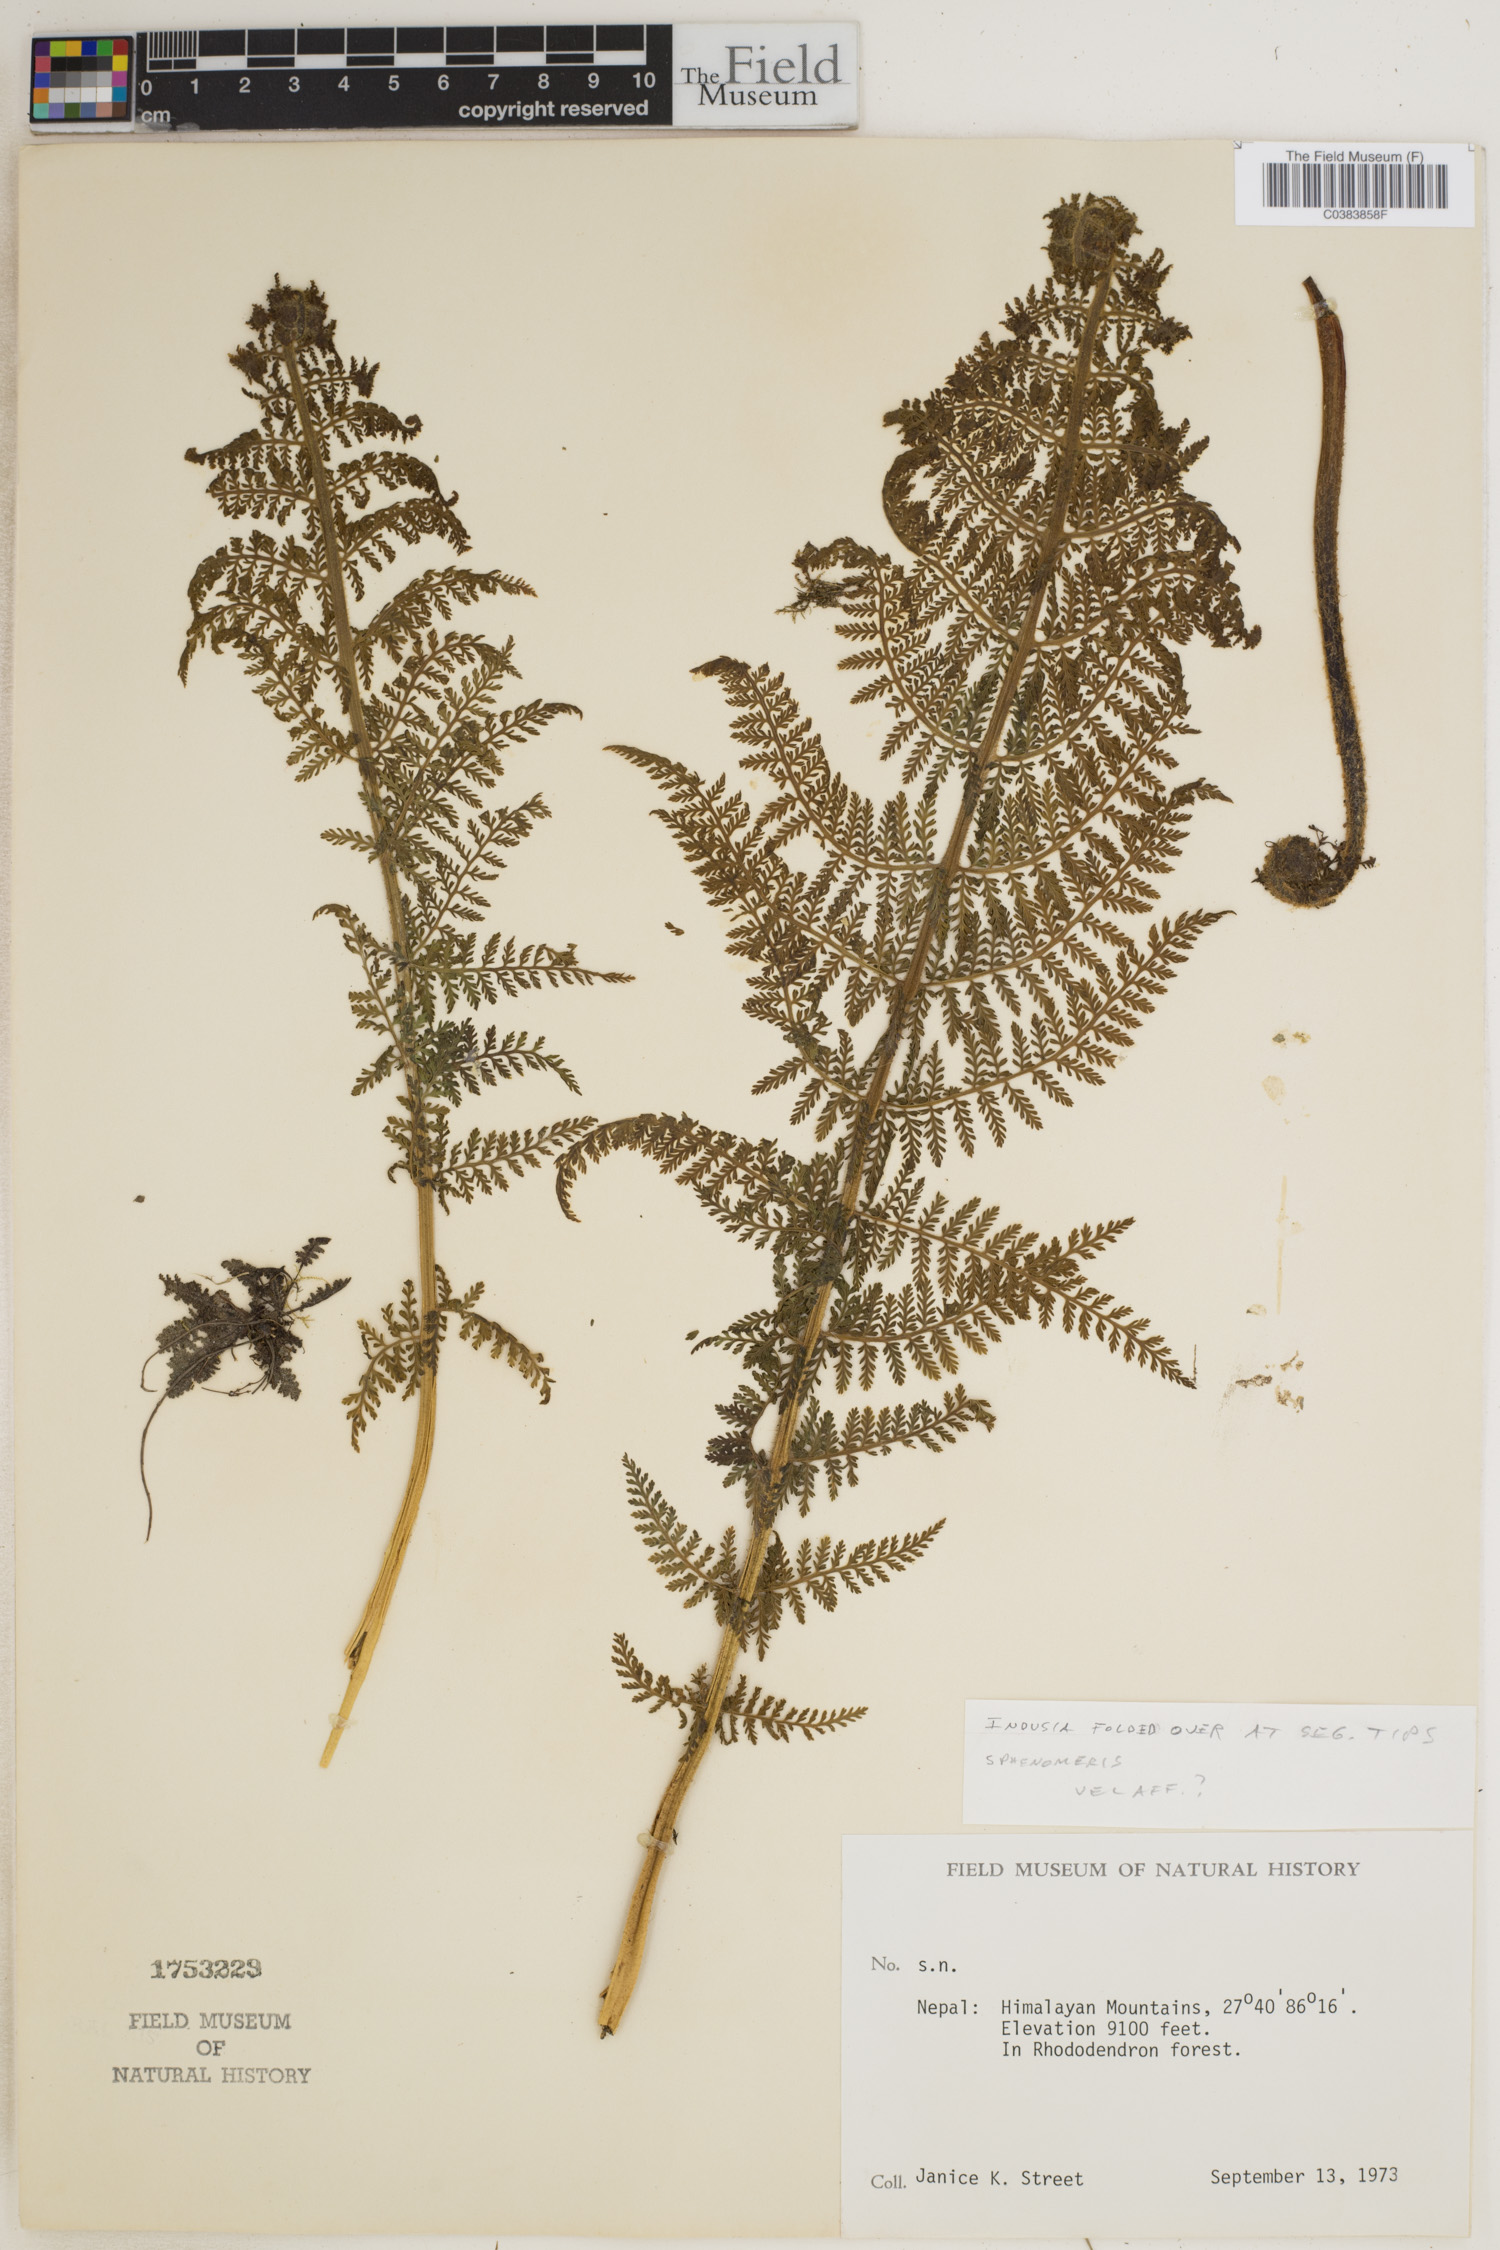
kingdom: Plantae
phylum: Tracheophyta
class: Polypodiopsida
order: Polypodiales
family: Lindsaeaceae
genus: Sphenomeris
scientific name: Sphenomeris
